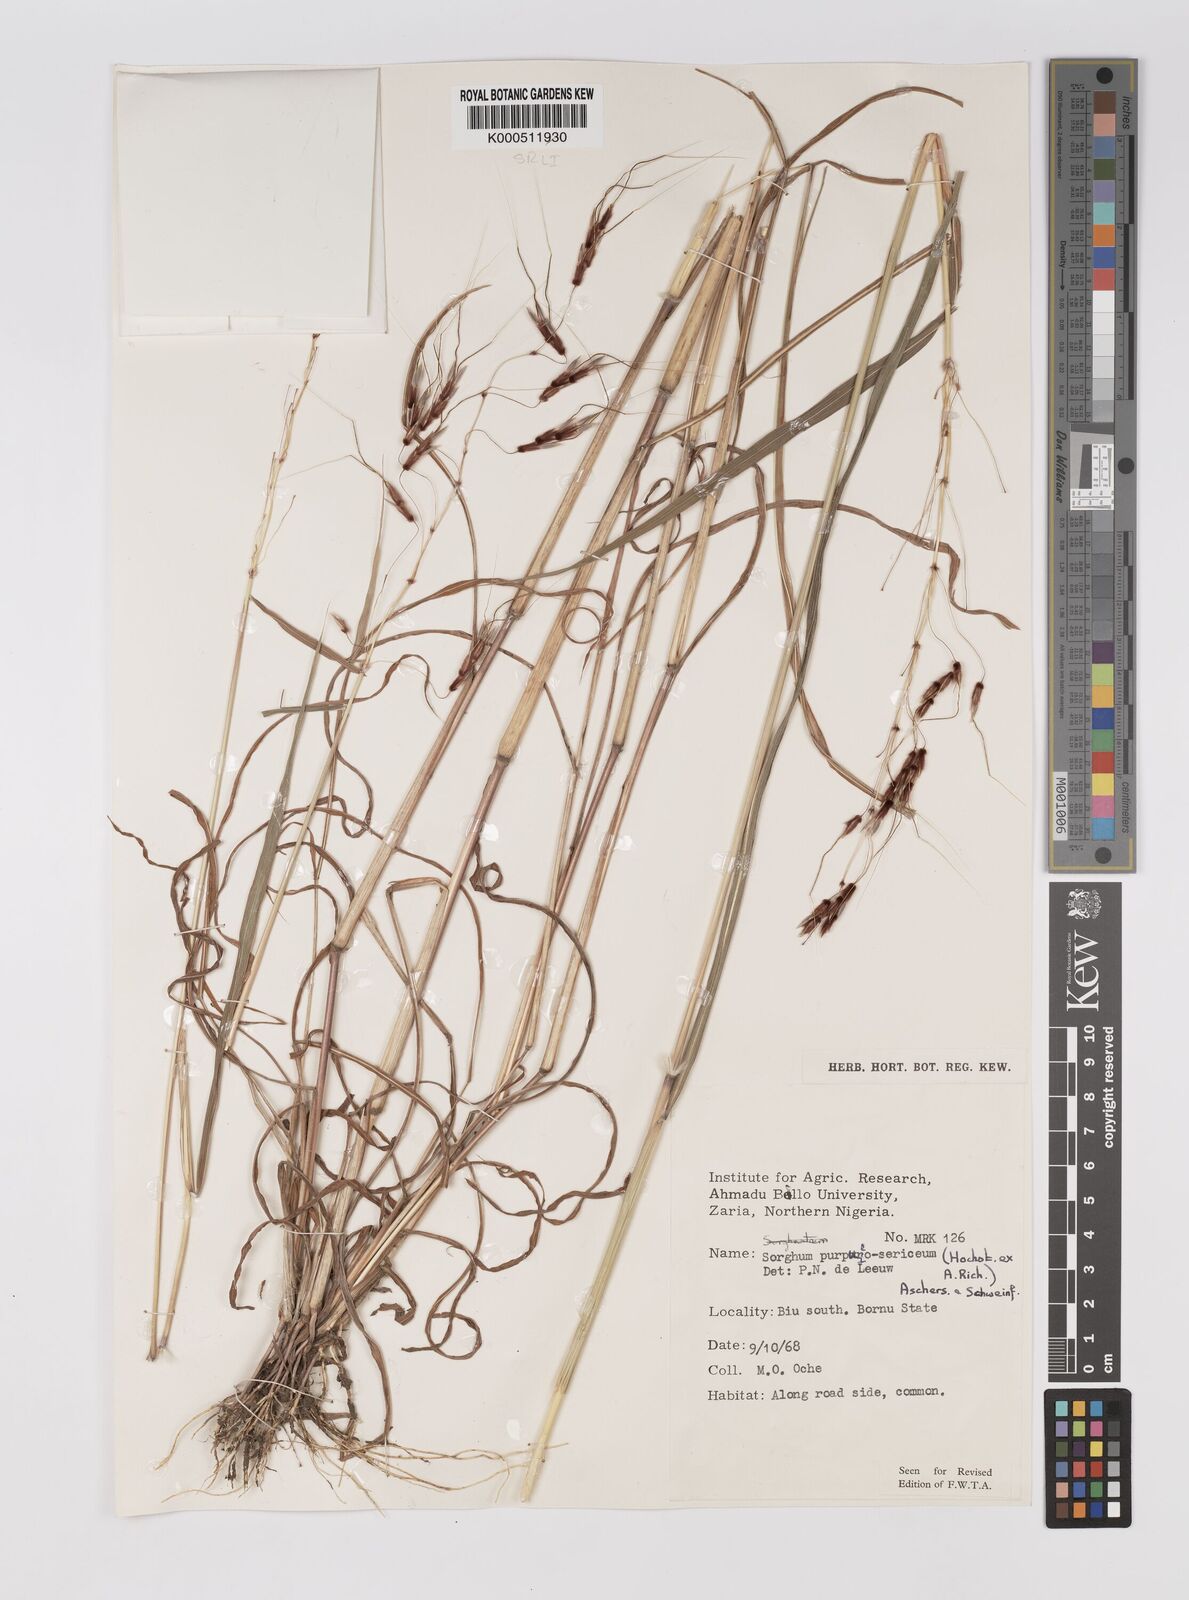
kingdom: Plantae
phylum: Tracheophyta
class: Liliopsida
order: Poales
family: Poaceae
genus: Sarga
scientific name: Sarga purpureosericea
